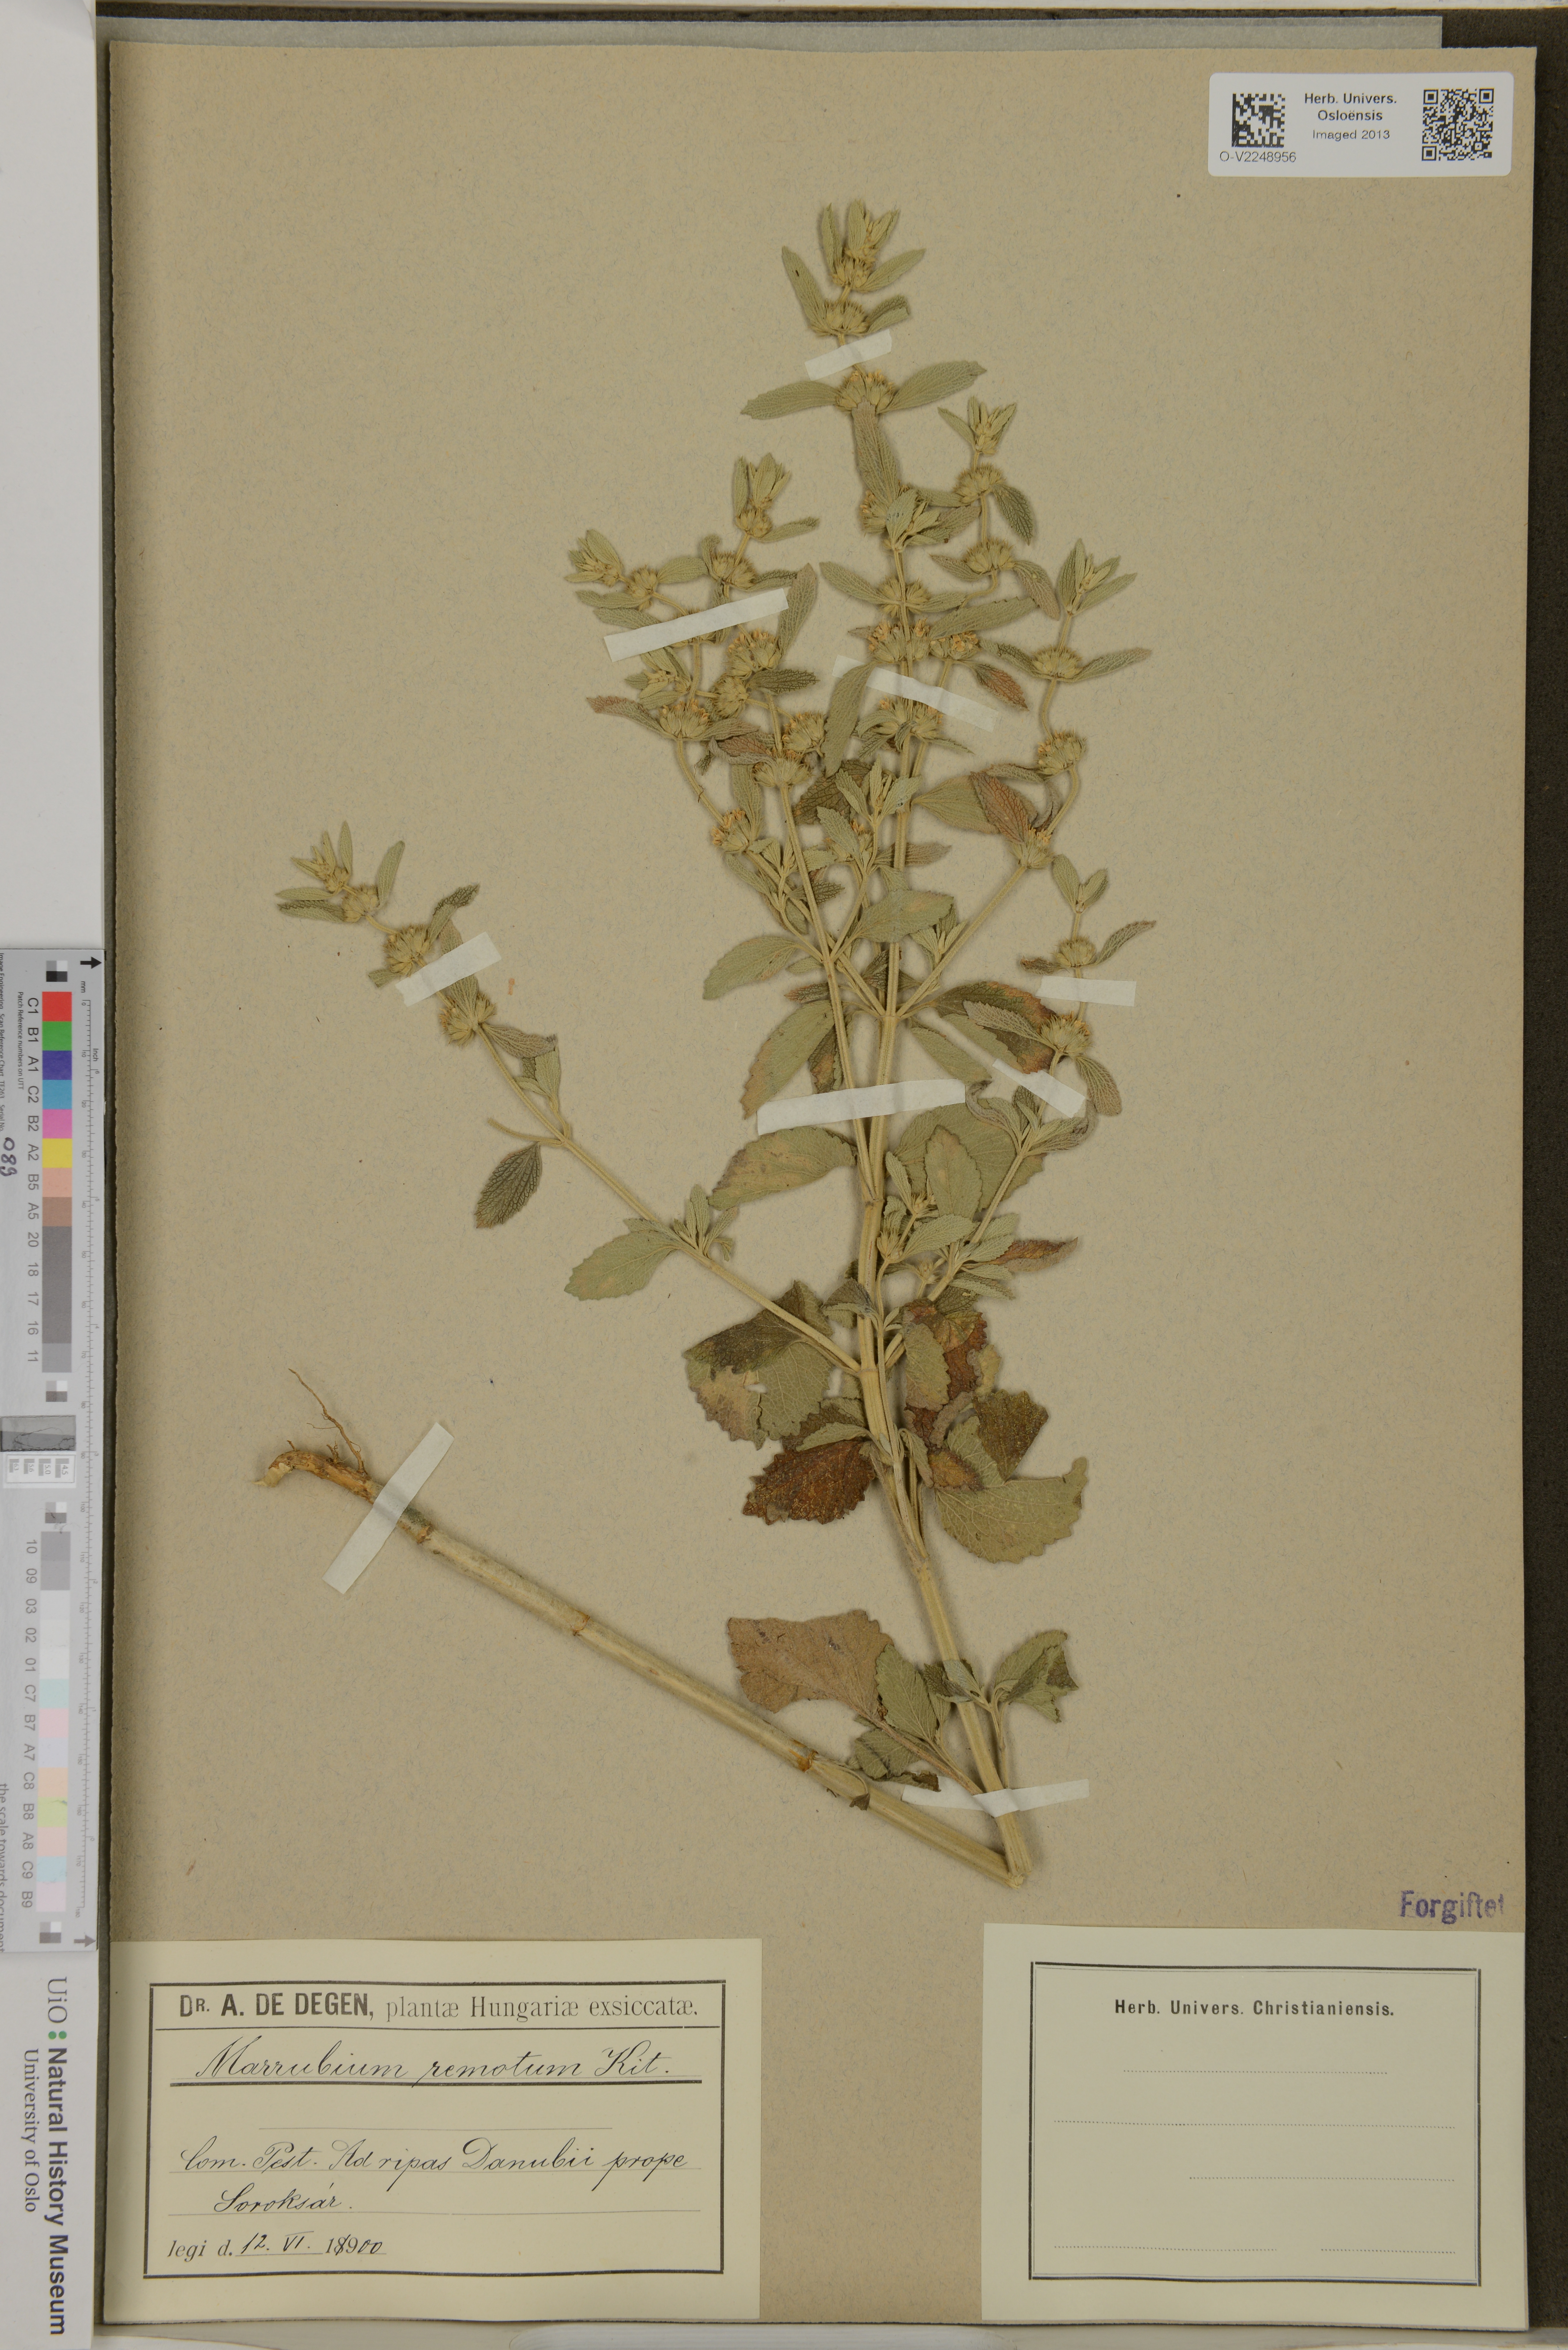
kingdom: Plantae
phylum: Tracheophyta
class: Magnoliopsida
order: Lamiales
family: Lamiaceae
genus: Marrubium
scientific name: Marrubium remotum
